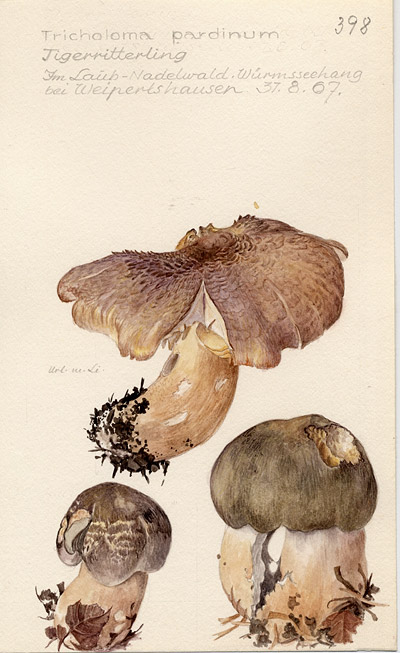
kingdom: Fungi
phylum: Basidiomycota
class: Agaricomycetes
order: Agaricales
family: Tricholomataceae
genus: Tricholoma
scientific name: Tricholoma pardinum
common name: Leopard knight
